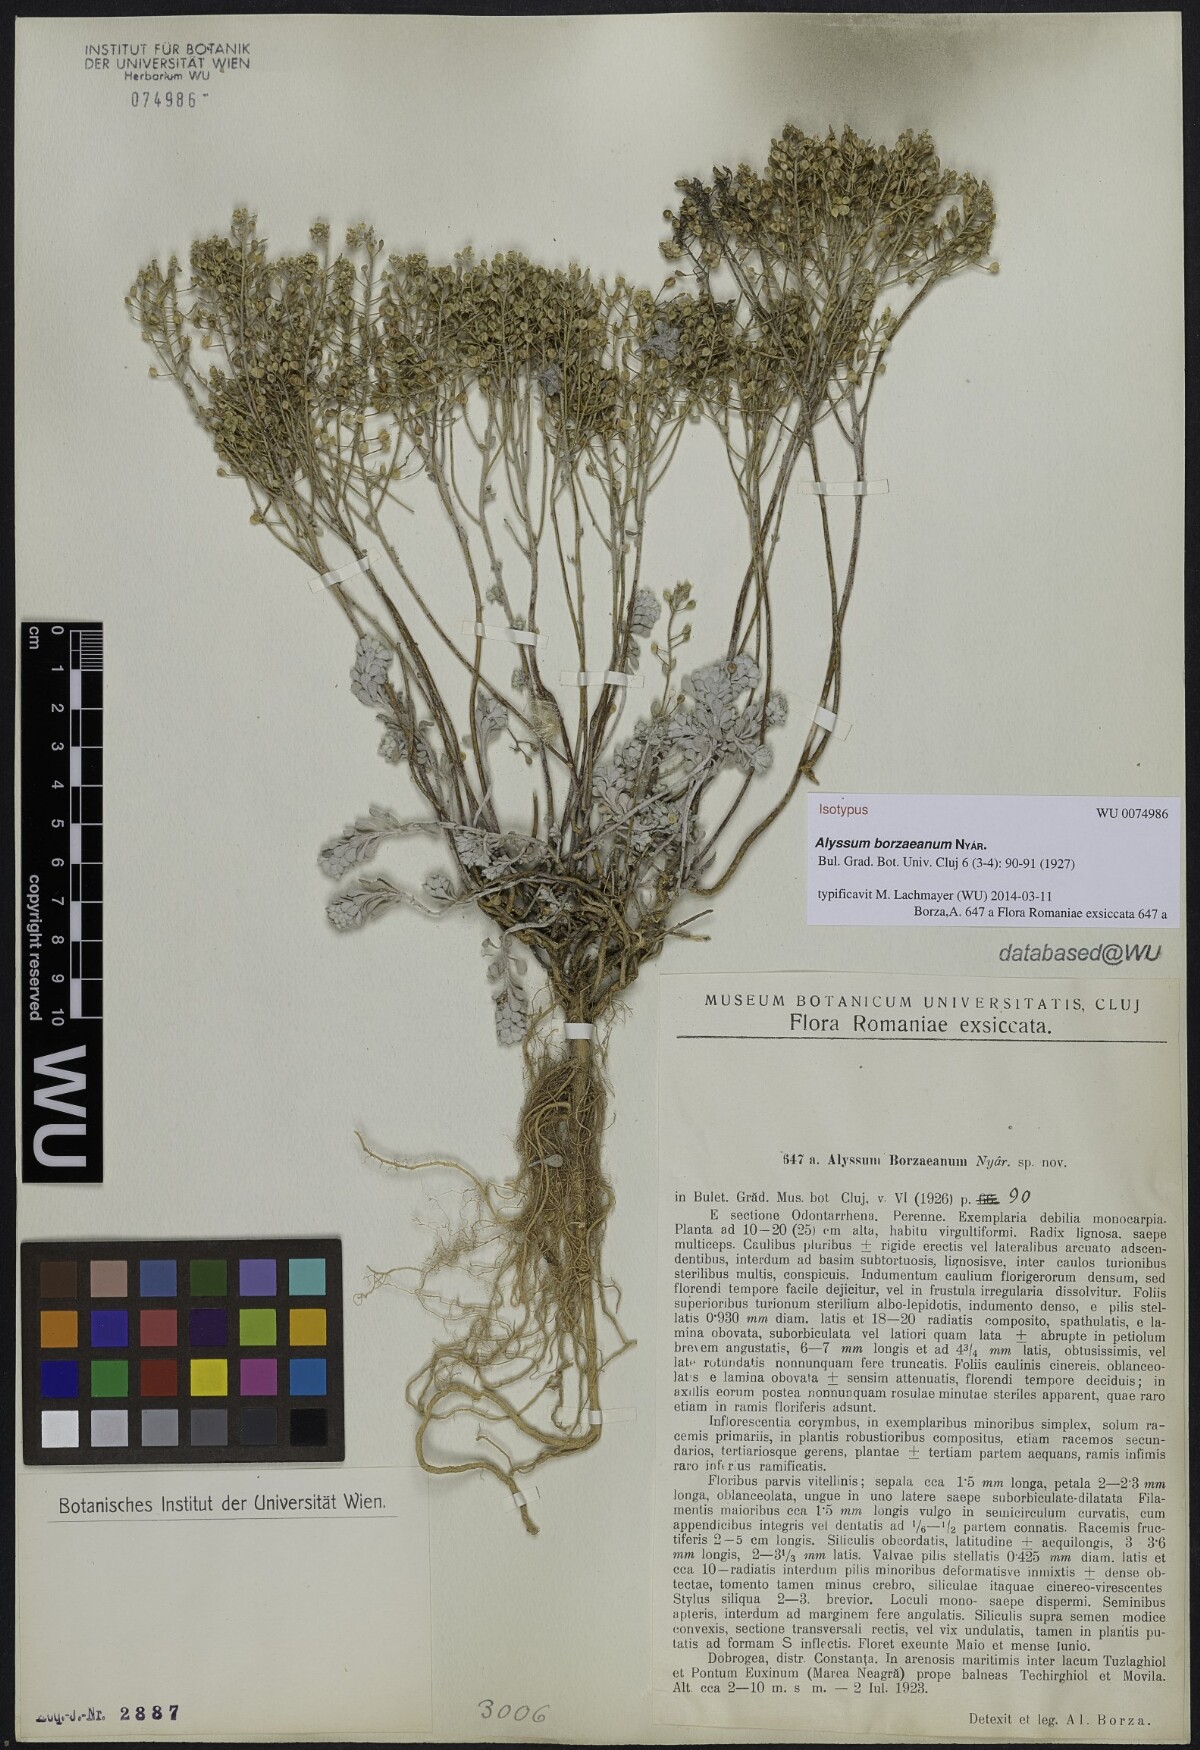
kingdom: Plantae
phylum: Tracheophyta
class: Magnoliopsida
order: Brassicales
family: Brassicaceae
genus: Odontarrhena
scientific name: Odontarrhena borzeana
